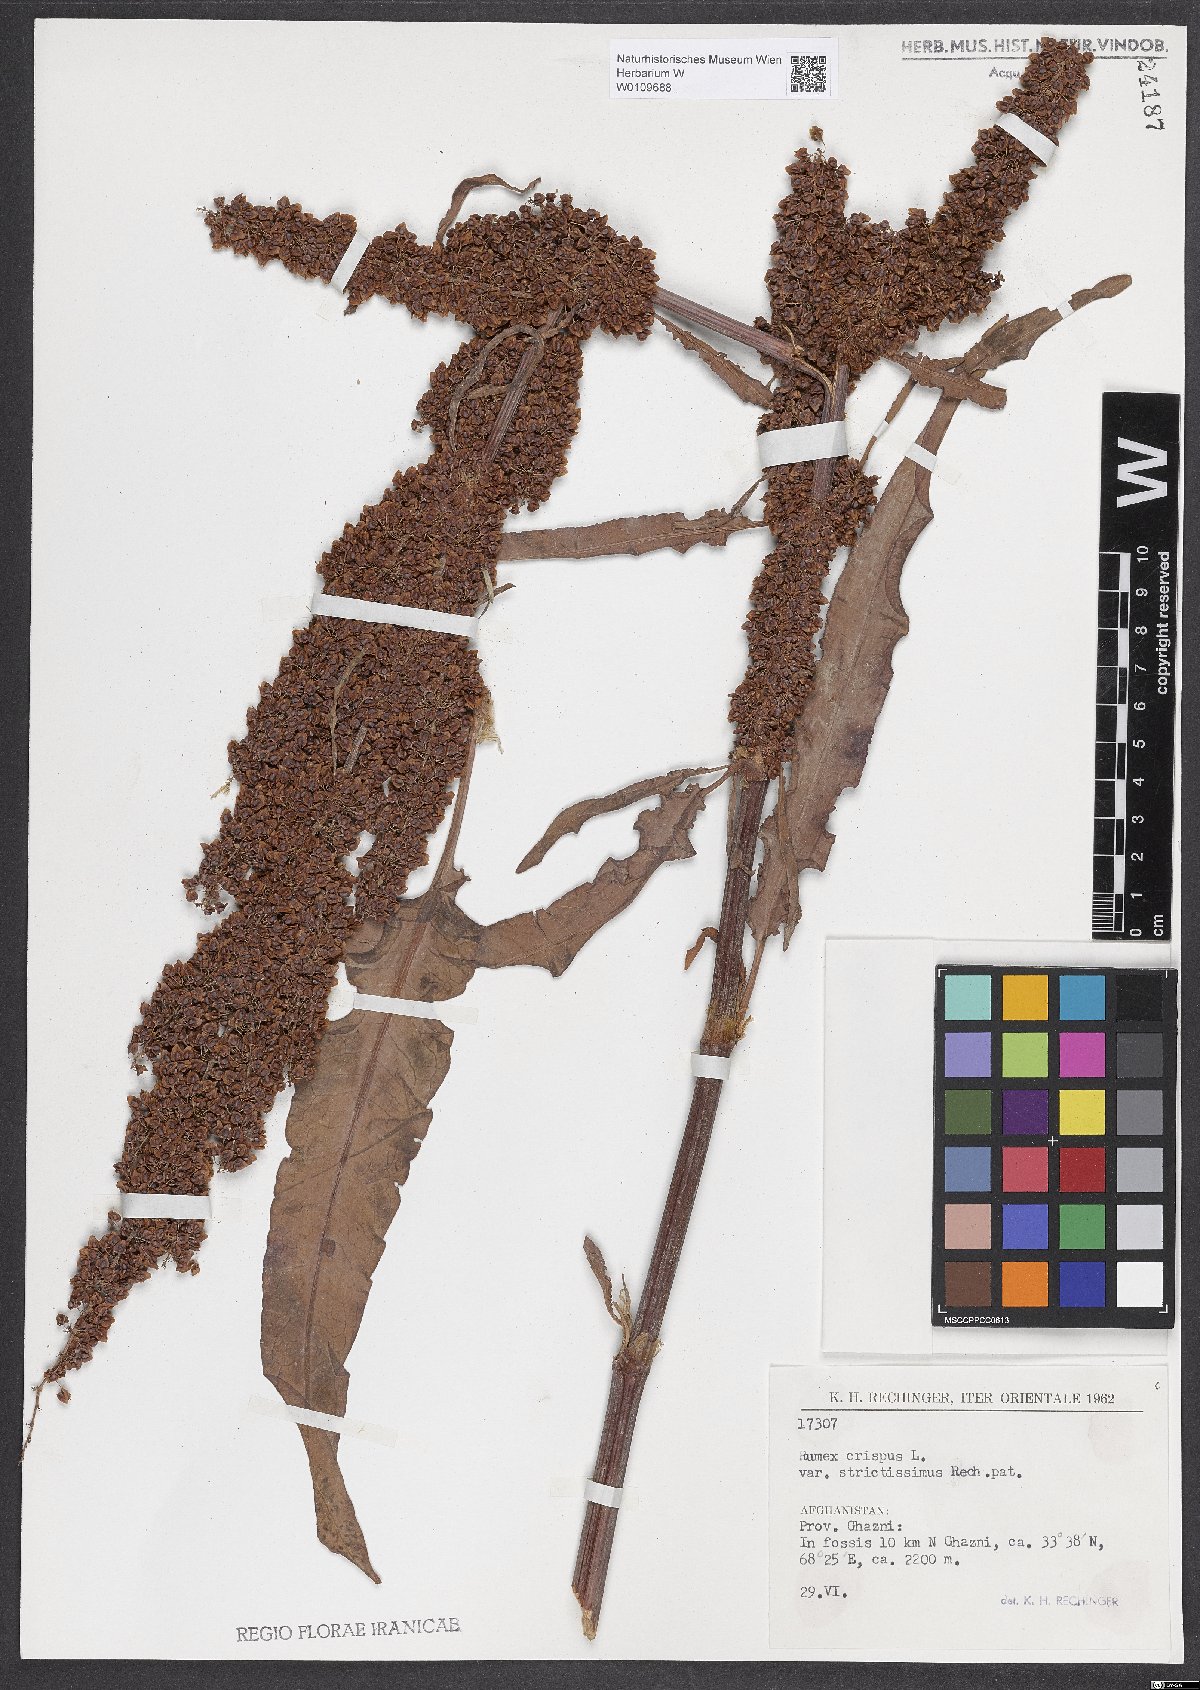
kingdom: Plantae
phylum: Tracheophyta
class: Magnoliopsida
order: Caryophyllales
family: Polygonaceae
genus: Rumex
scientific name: Rumex crispus
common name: Curled dock
